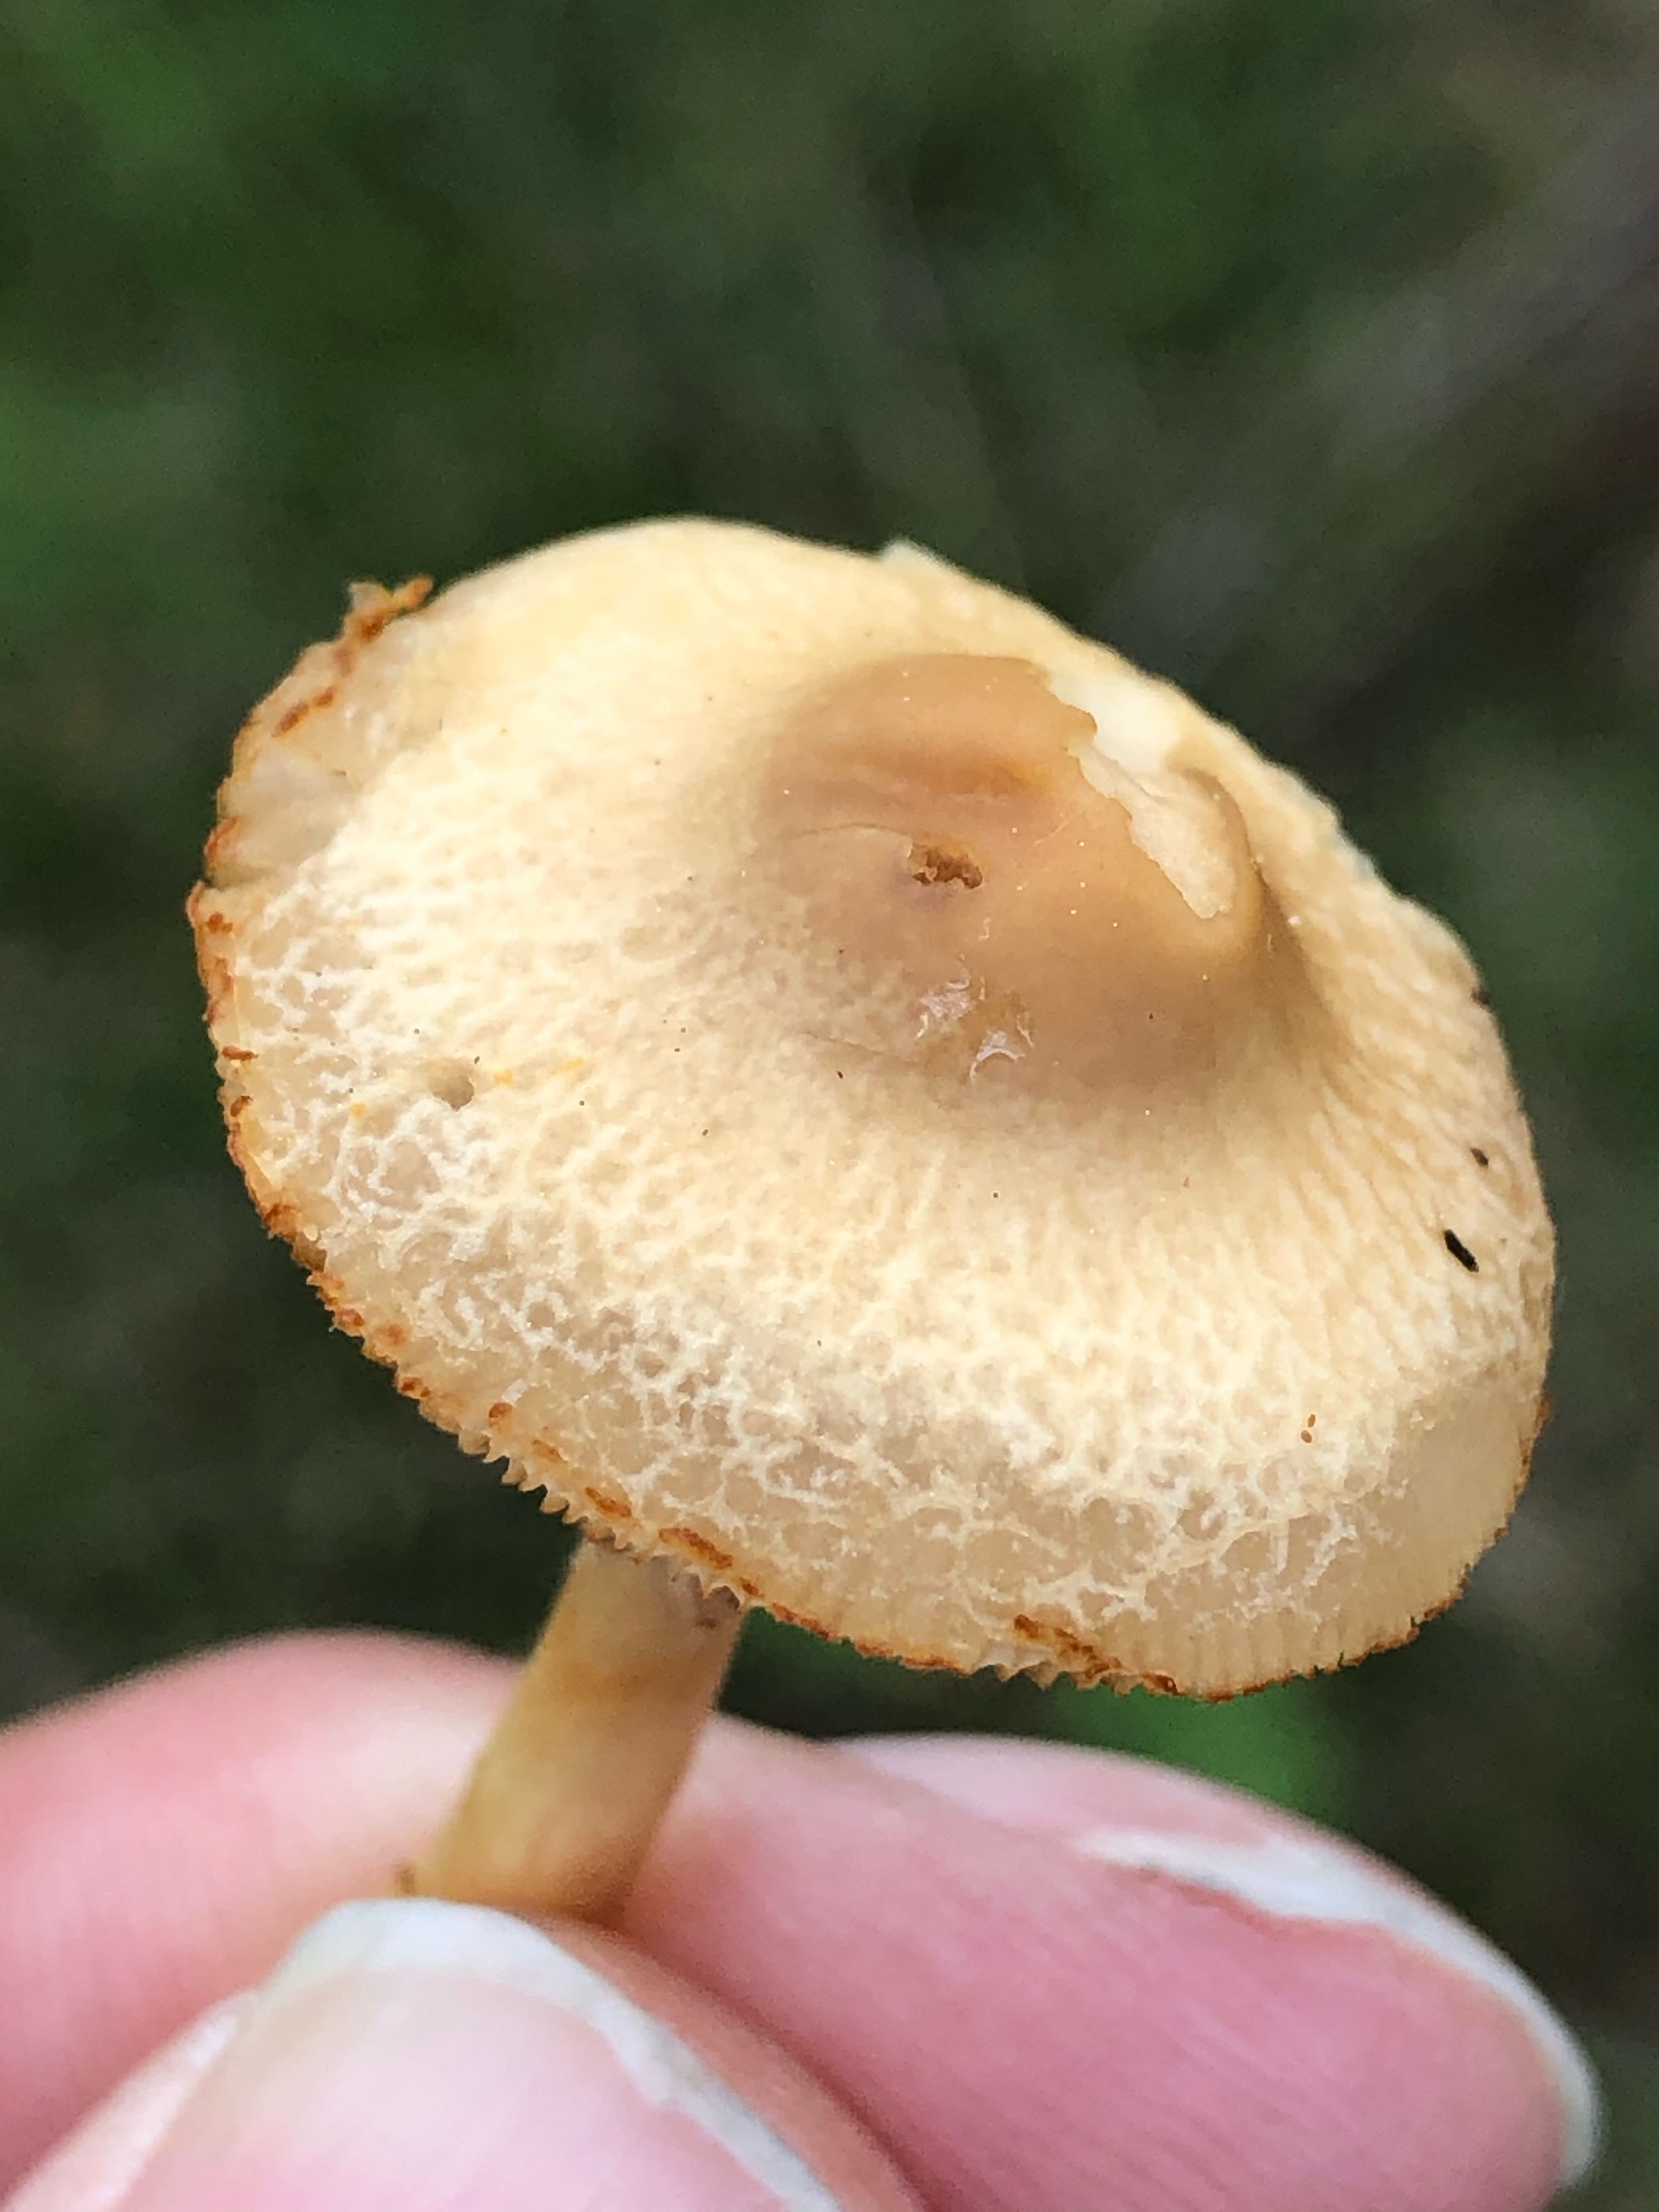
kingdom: Fungi
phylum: Basidiomycota
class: Agaricomycetes
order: Agaricales
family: Strophariaceae
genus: Agrocybe
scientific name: Agrocybe
